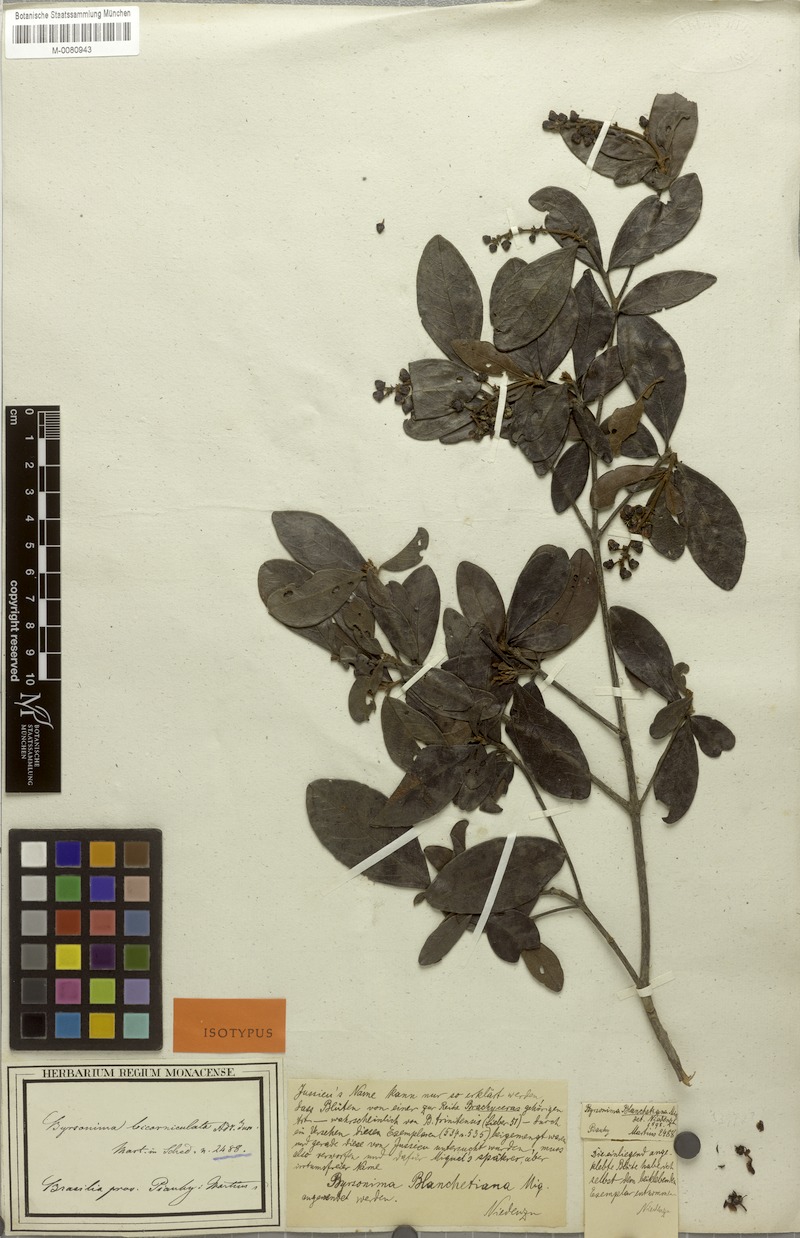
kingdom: Plantae
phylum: Tracheophyta
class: Magnoliopsida
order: Malpighiales
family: Malpighiaceae
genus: Byrsonima
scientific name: Byrsonima bicorniculata
